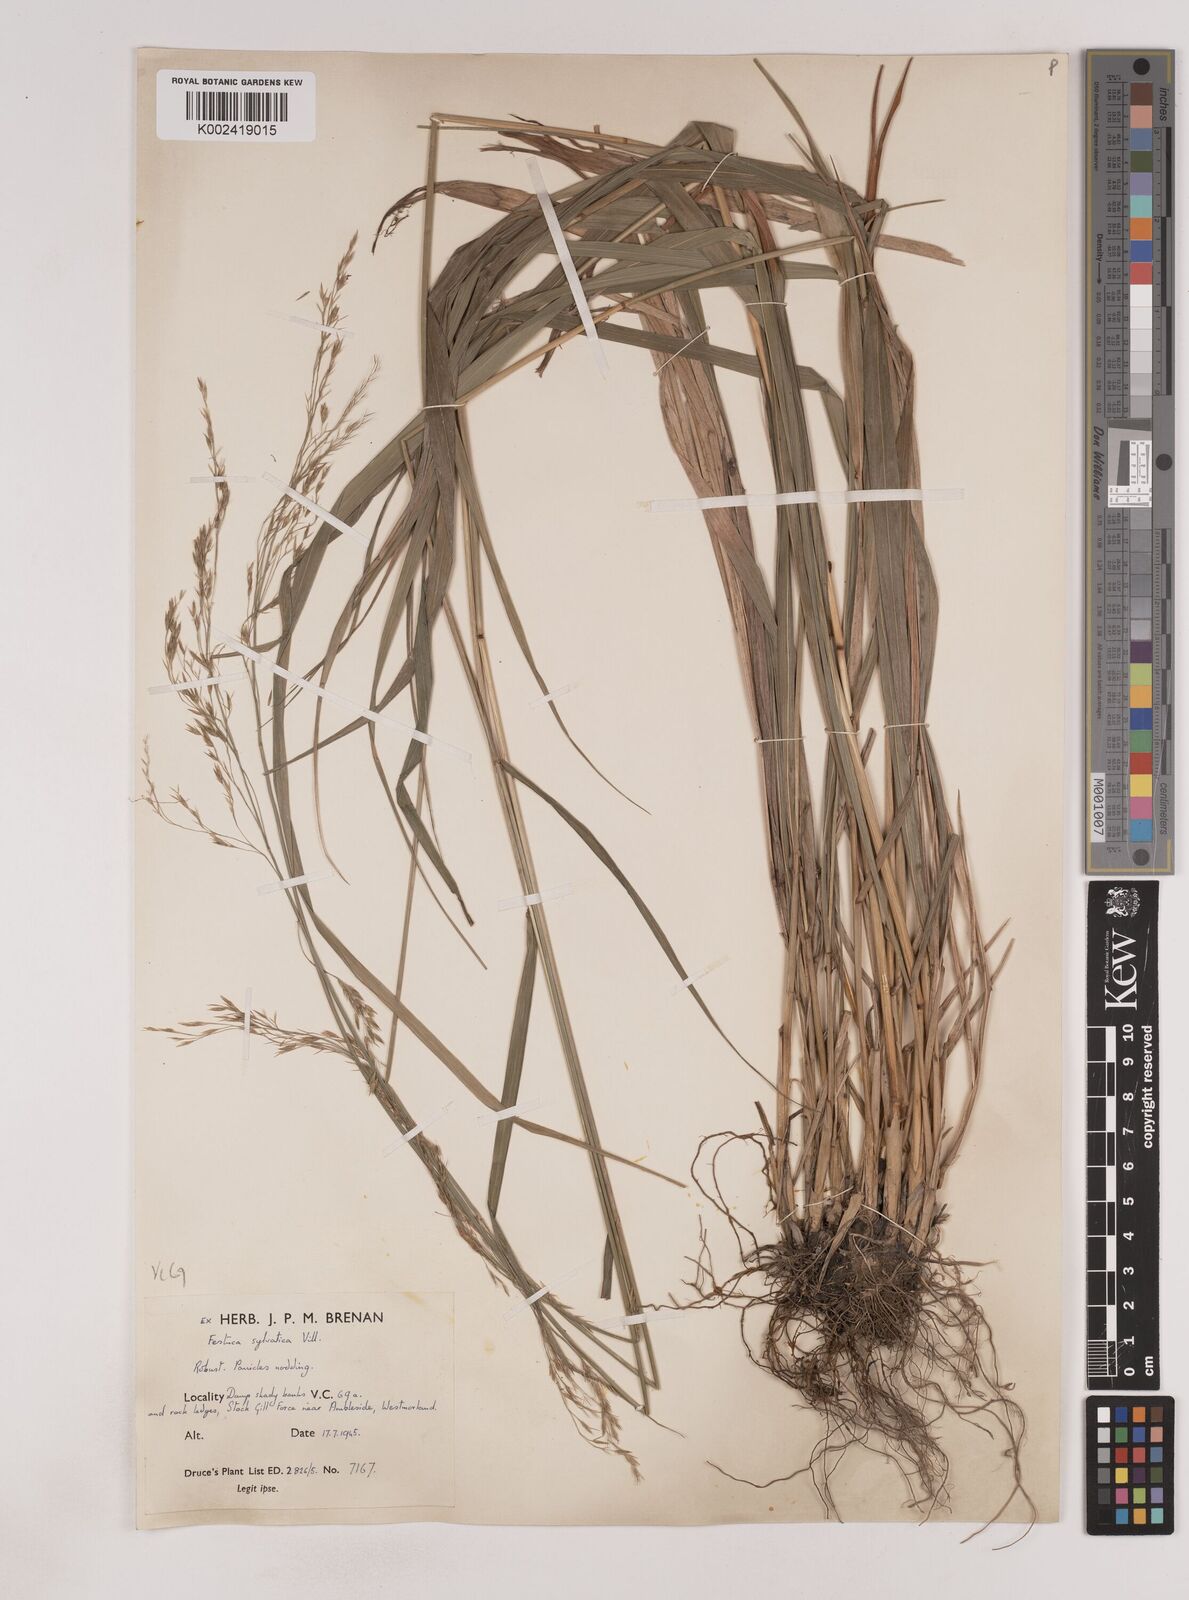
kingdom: Plantae
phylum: Tracheophyta
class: Liliopsida
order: Poales
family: Poaceae
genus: Festuca
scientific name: Festuca drymeja
